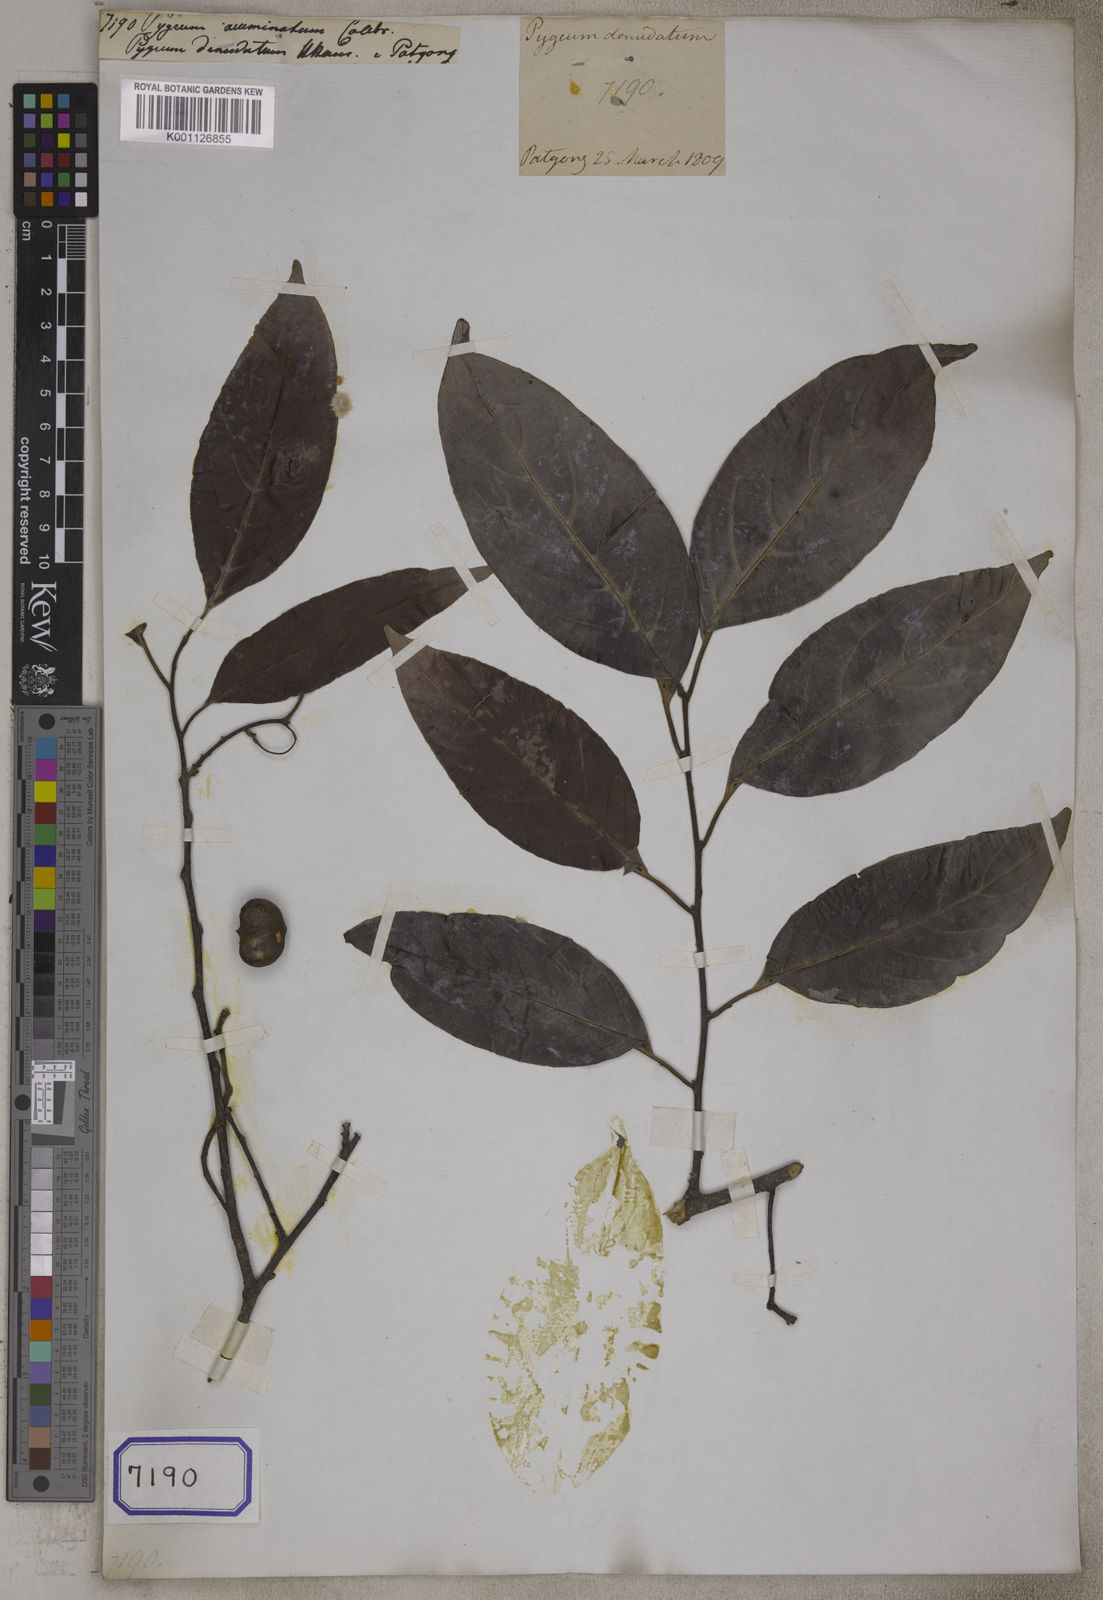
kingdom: Plantae
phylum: Tracheophyta
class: Magnoliopsida
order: Rosales
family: Rosaceae
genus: Prunus
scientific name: Prunus ceylanica
